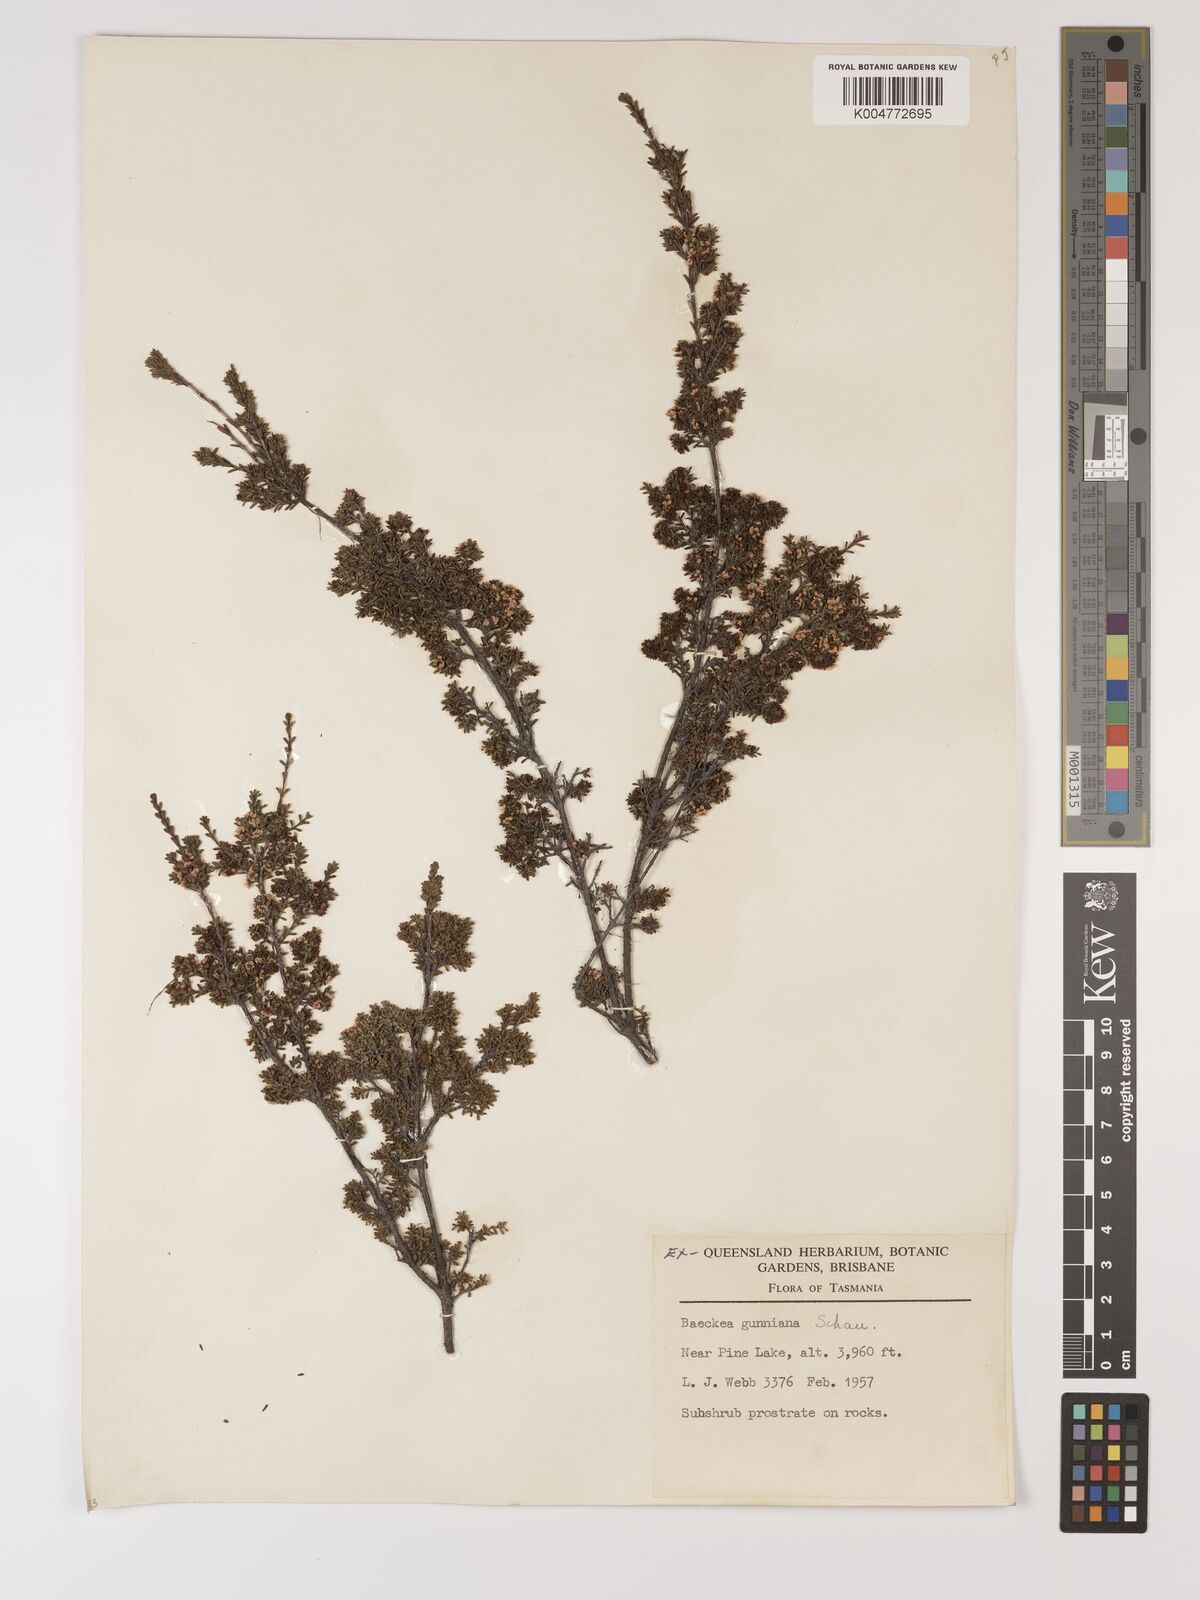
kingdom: Plantae
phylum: Tracheophyta
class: Magnoliopsida
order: Myrtales
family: Myrtaceae
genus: Baeckea
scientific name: Baeckea gunniana
